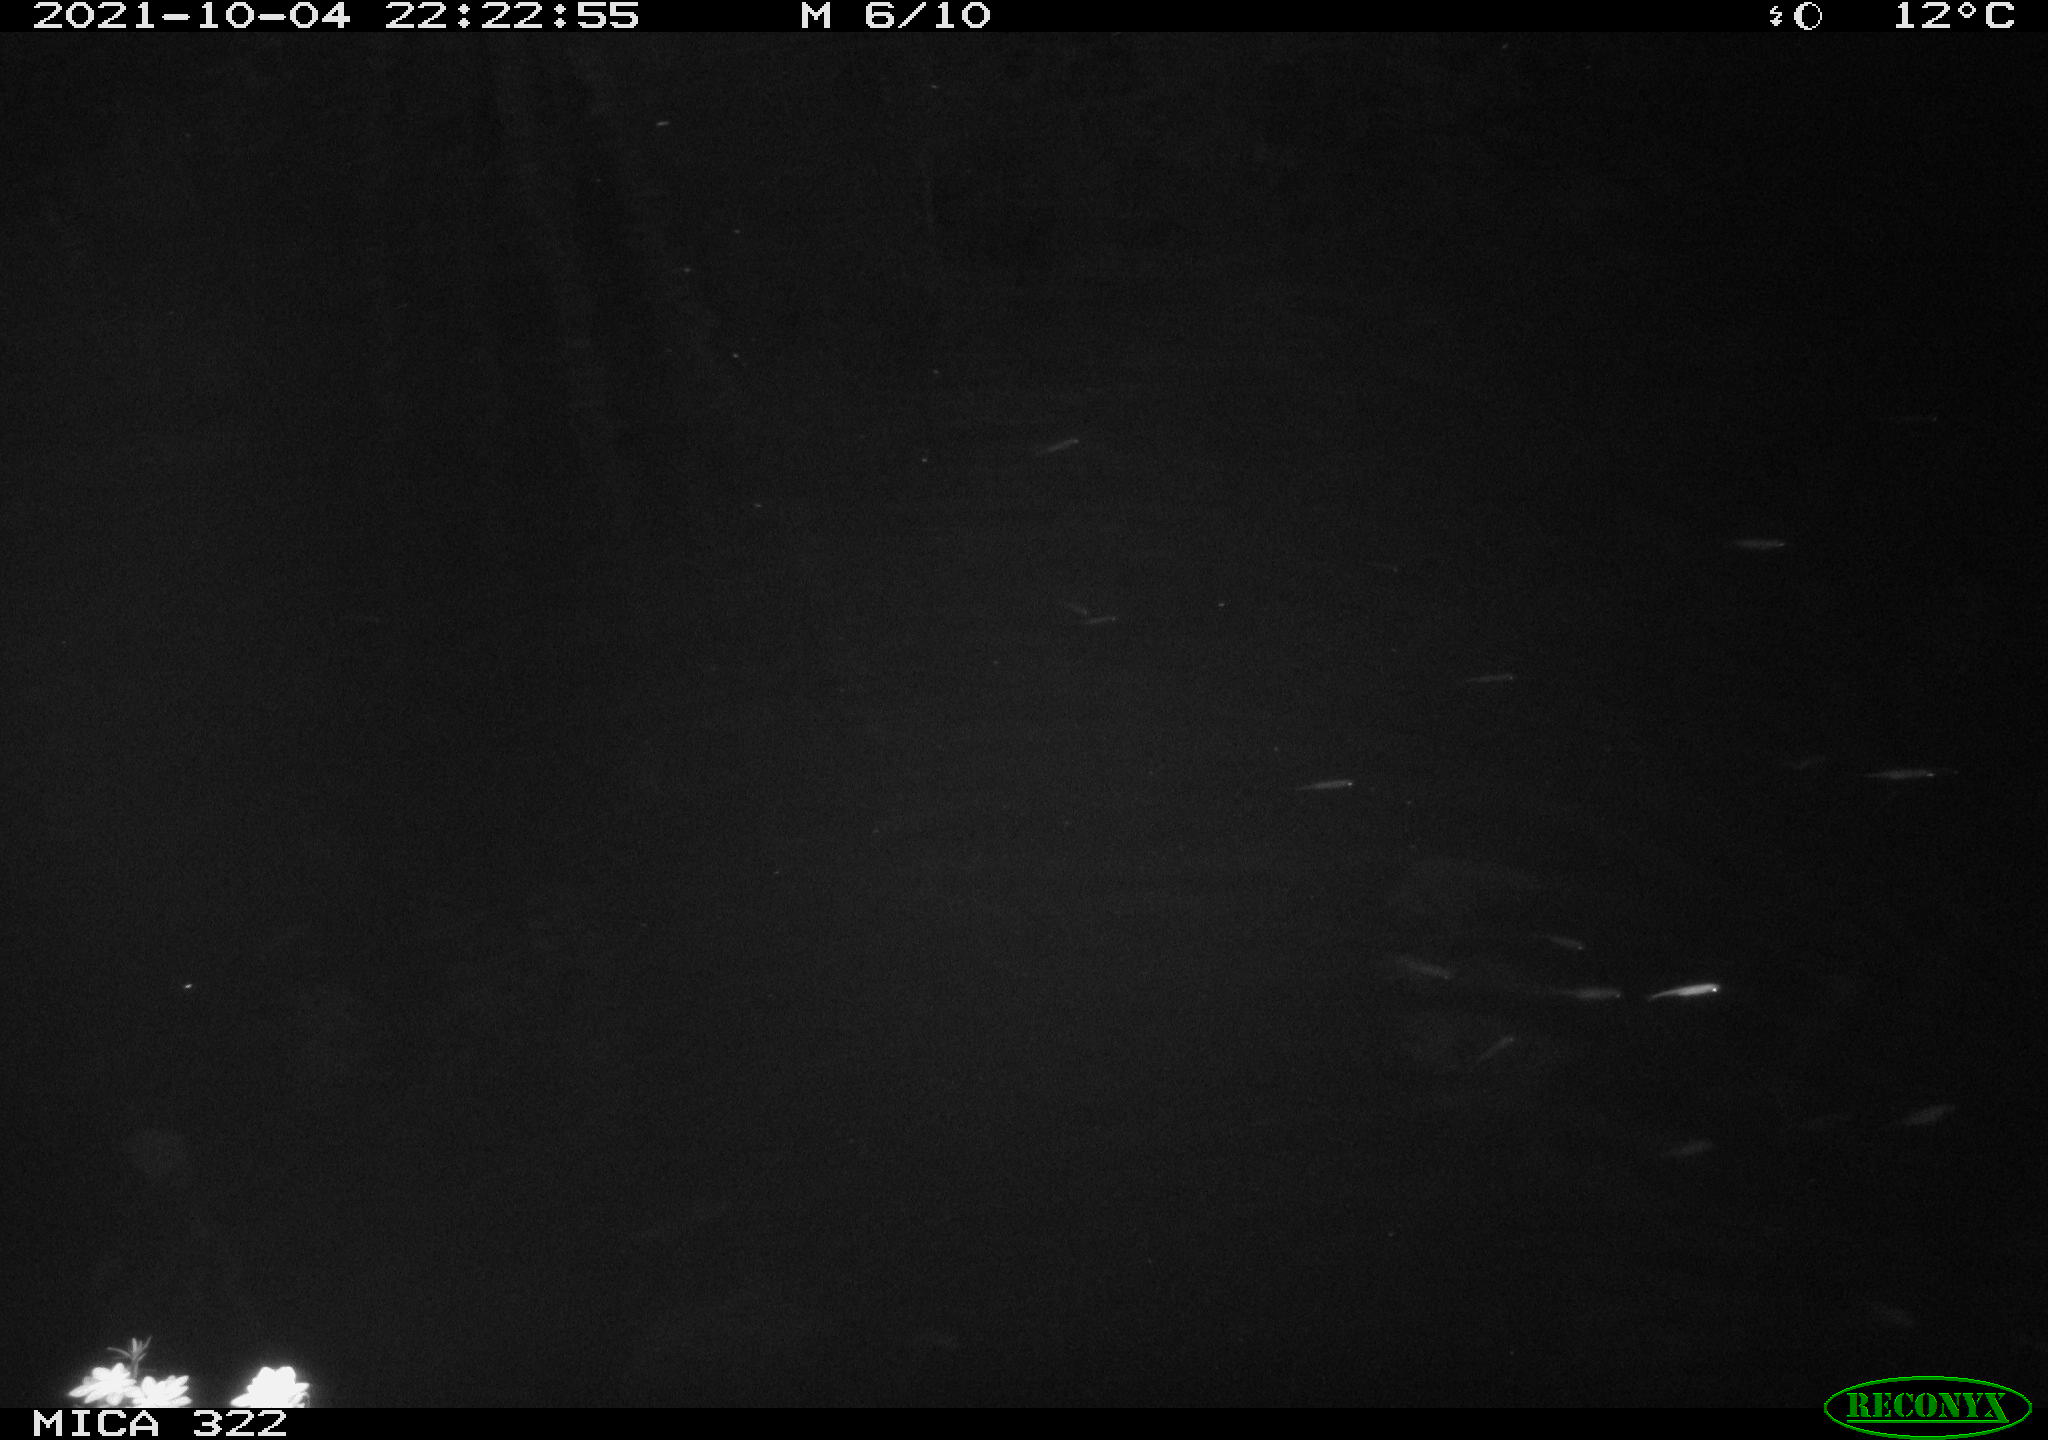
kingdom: Animalia
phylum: Chordata
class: Mammalia
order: Rodentia
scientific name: Rodentia
